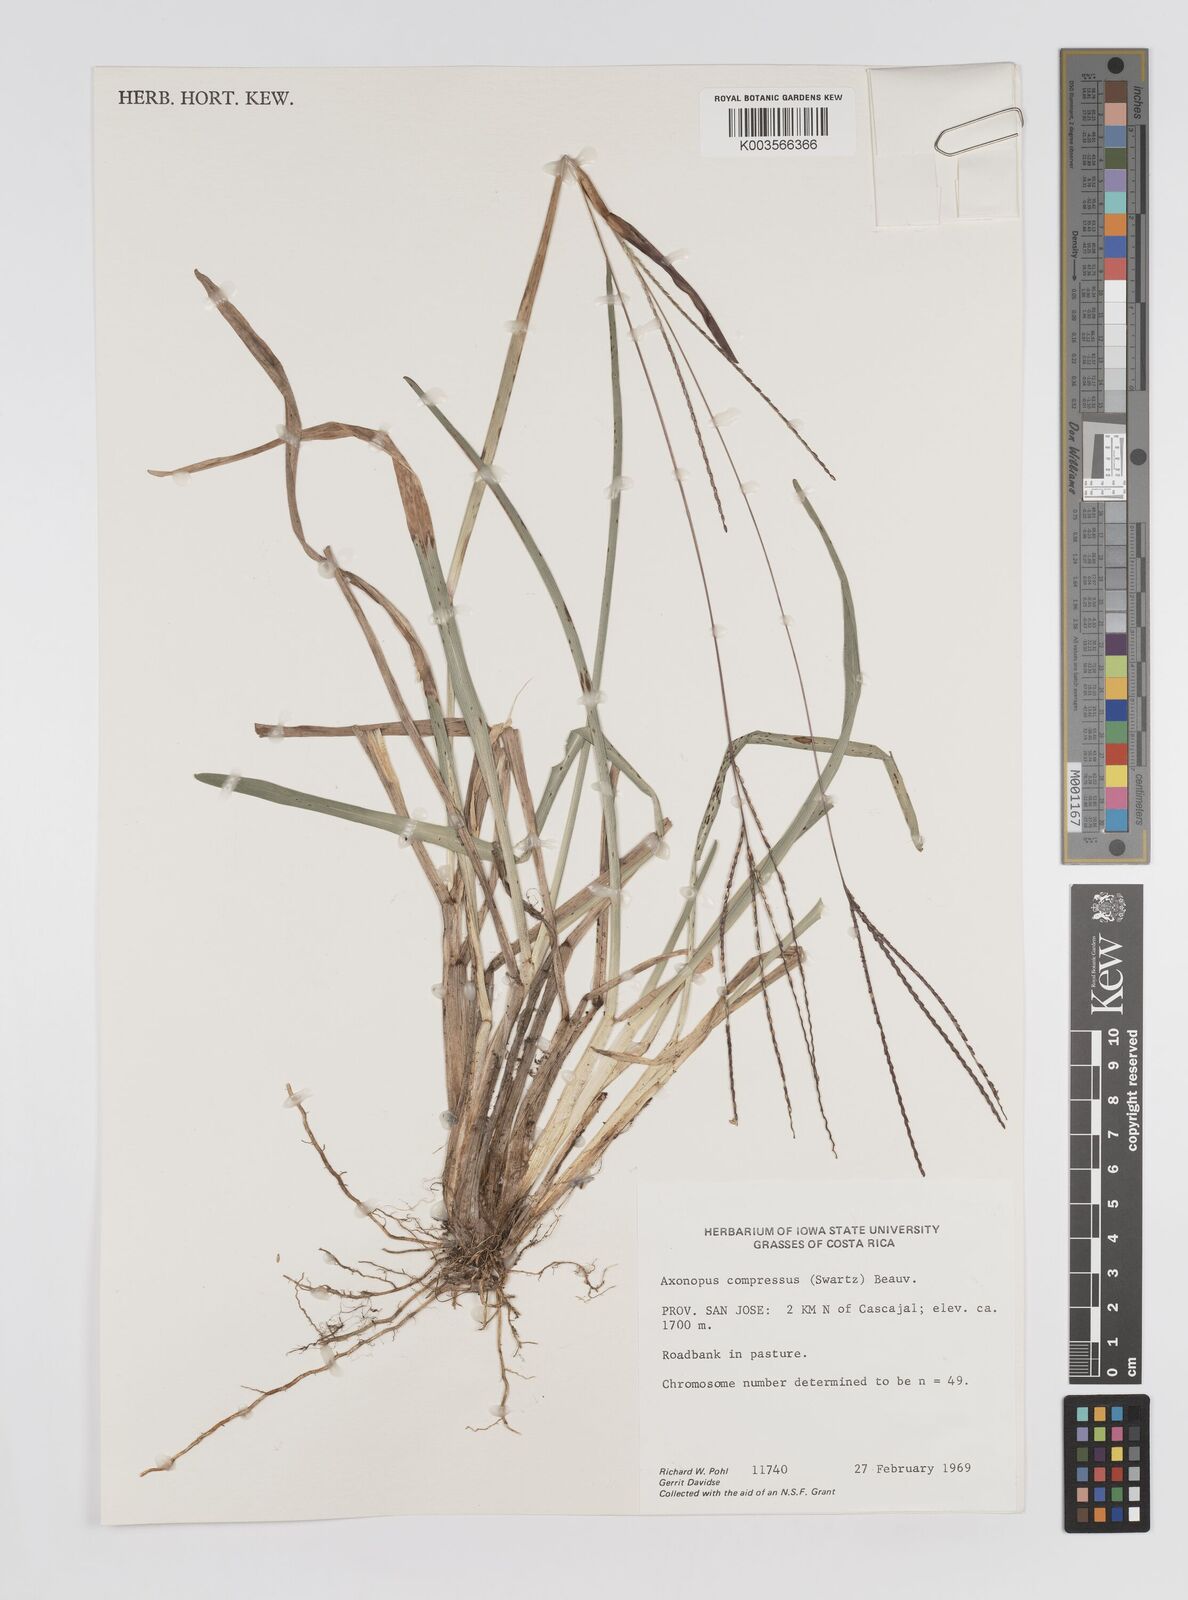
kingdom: Plantae
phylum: Tracheophyta
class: Liliopsida
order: Poales
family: Poaceae
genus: Axonopus
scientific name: Axonopus compressus
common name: American carpet grass
